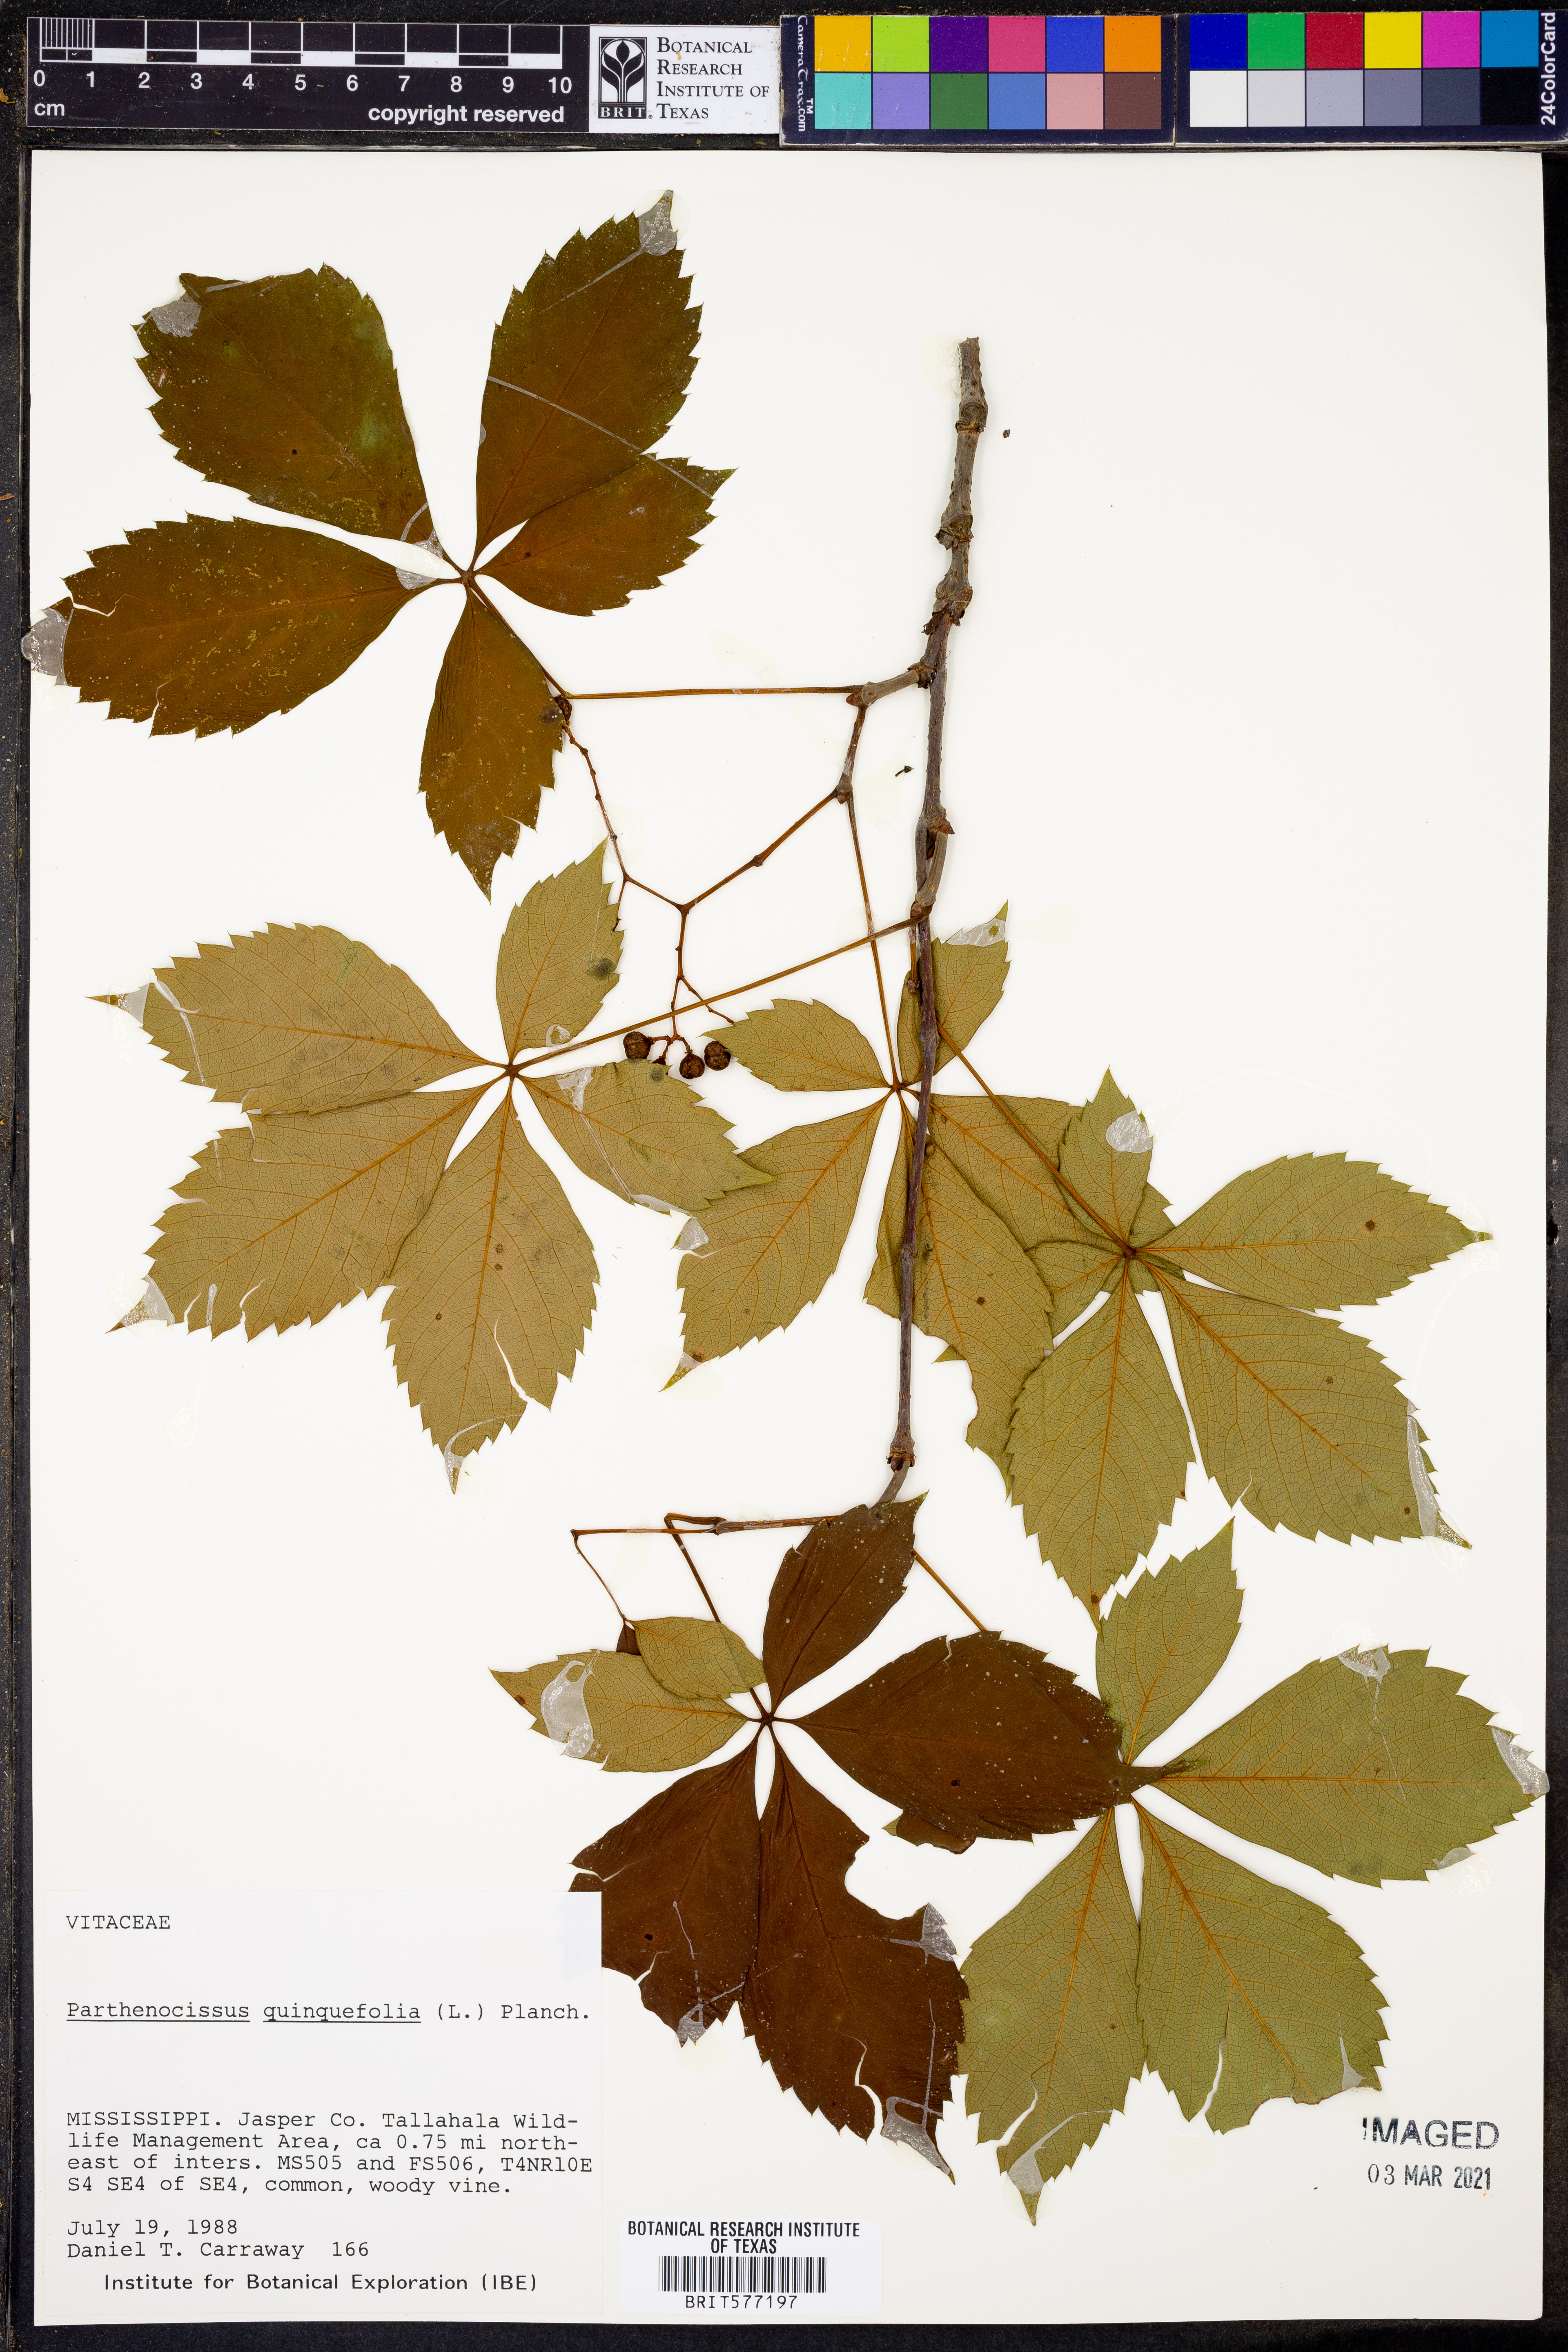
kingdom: Plantae
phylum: Tracheophyta
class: Magnoliopsida
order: Vitales
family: Vitaceae
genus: Parthenocissus
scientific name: Parthenocissus quinquefolia
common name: Virginia-creeper
